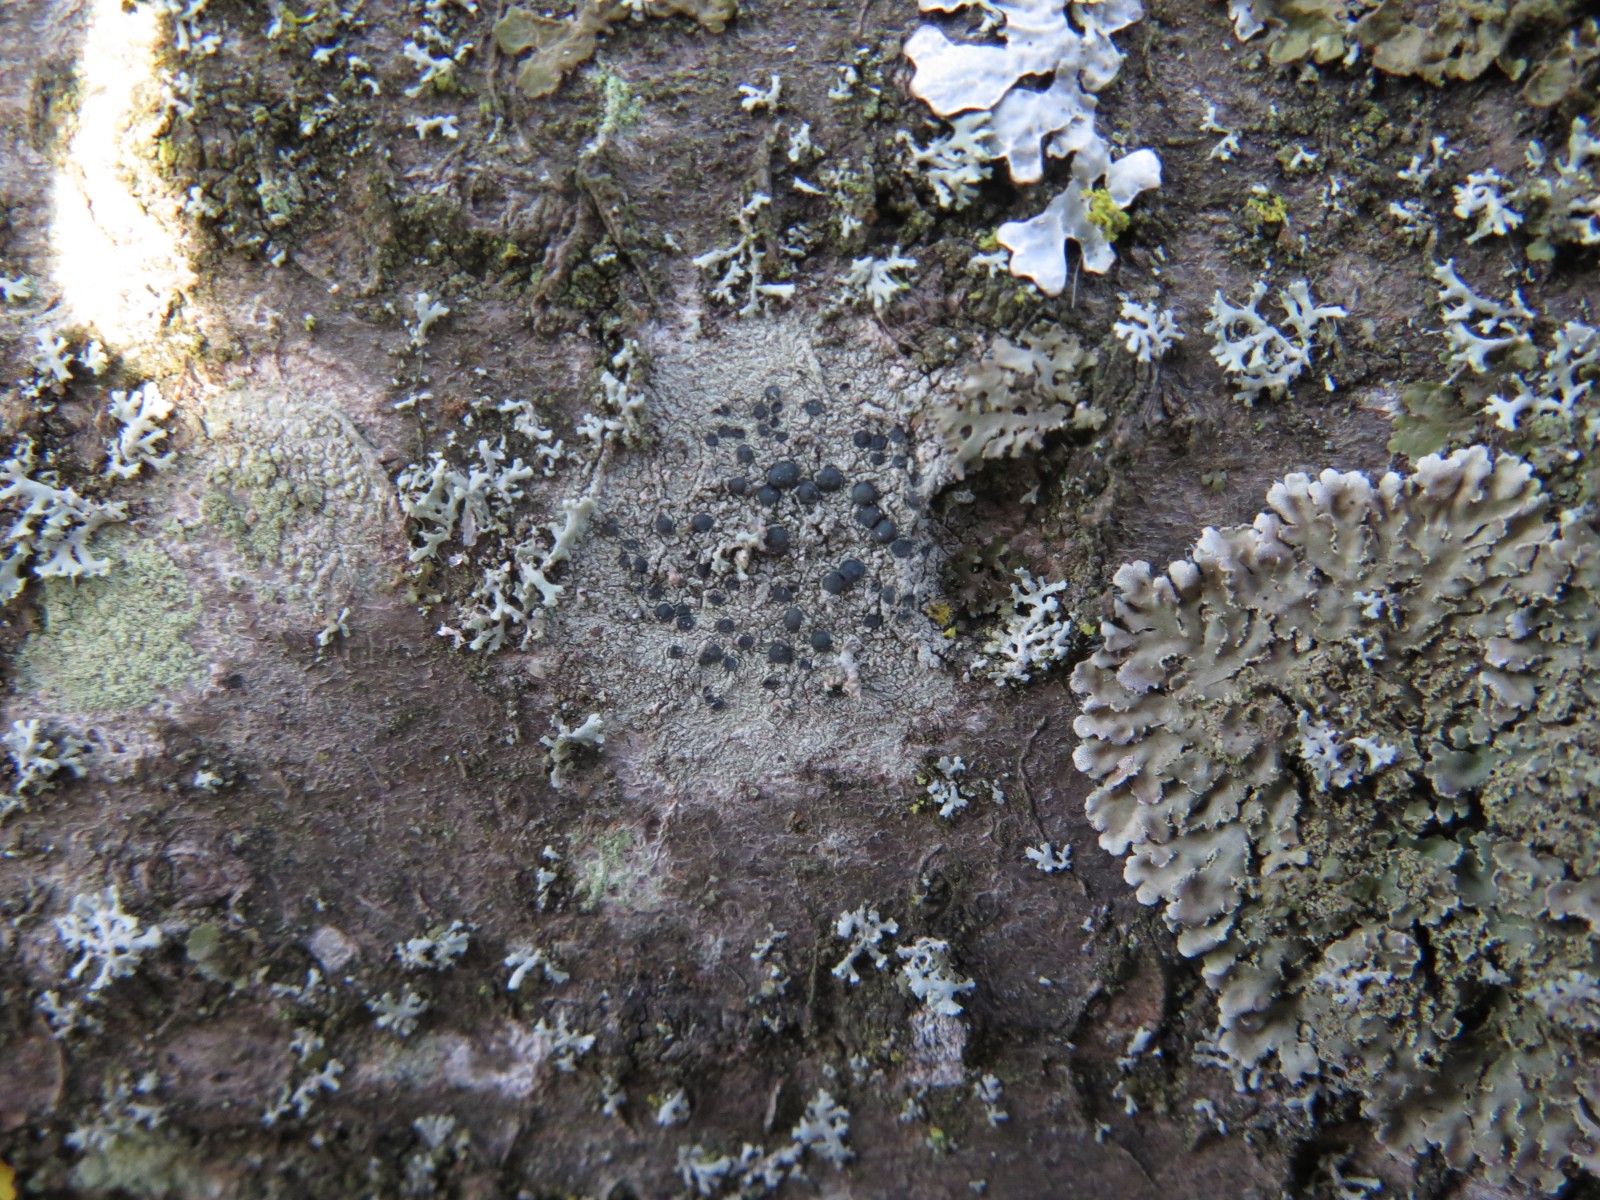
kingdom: Fungi
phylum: Ascomycota
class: Lecanoromycetes
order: Lecanorales
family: Lecanoraceae
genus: Lecidella
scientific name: Lecidella elaeochroma
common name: grågrøn skivelav
